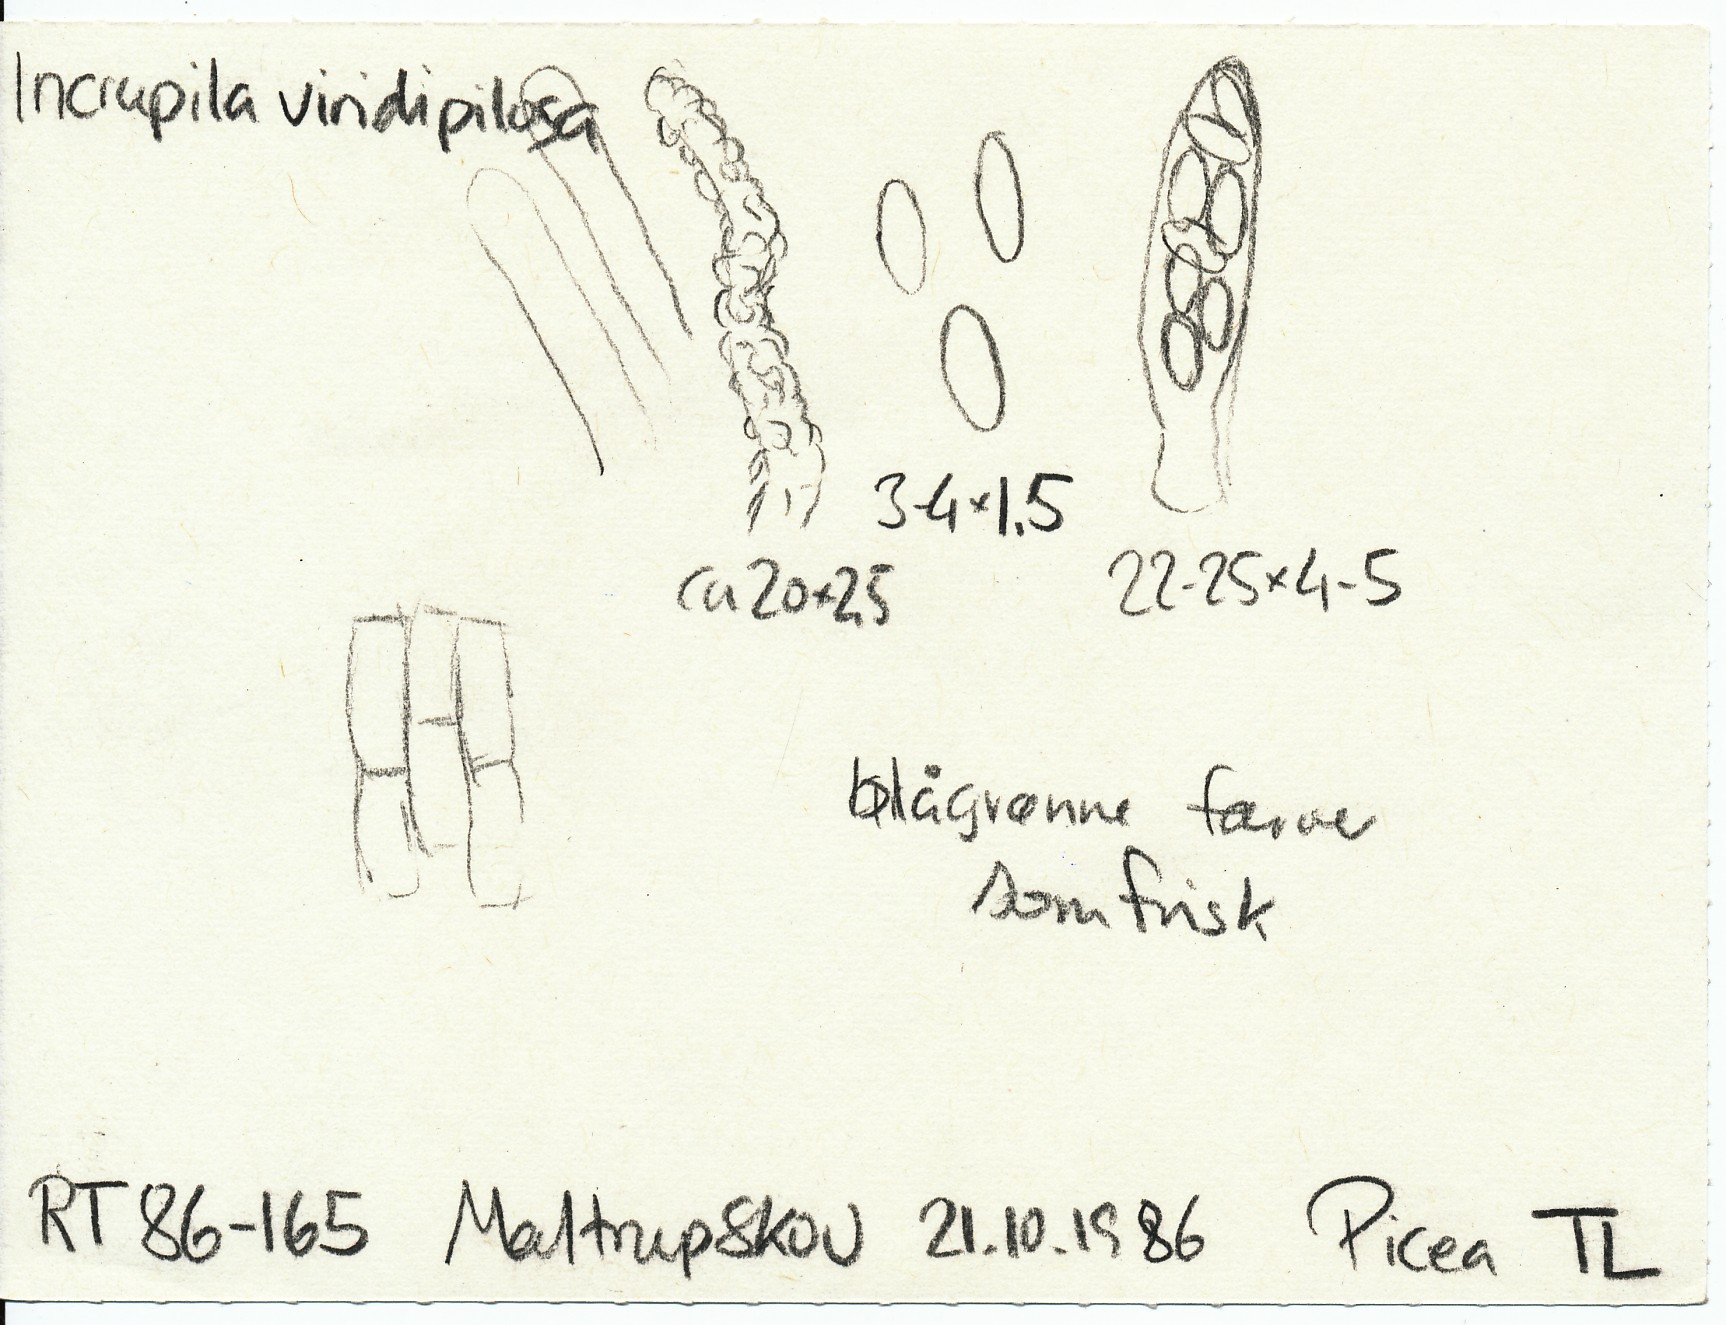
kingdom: Fungi
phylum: Ascomycota
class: Leotiomycetes
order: Helotiales
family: Hyphodiscaceae
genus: Hyphodiscus
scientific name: Hyphodiscus smaragdinus
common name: grønlig sirskive
